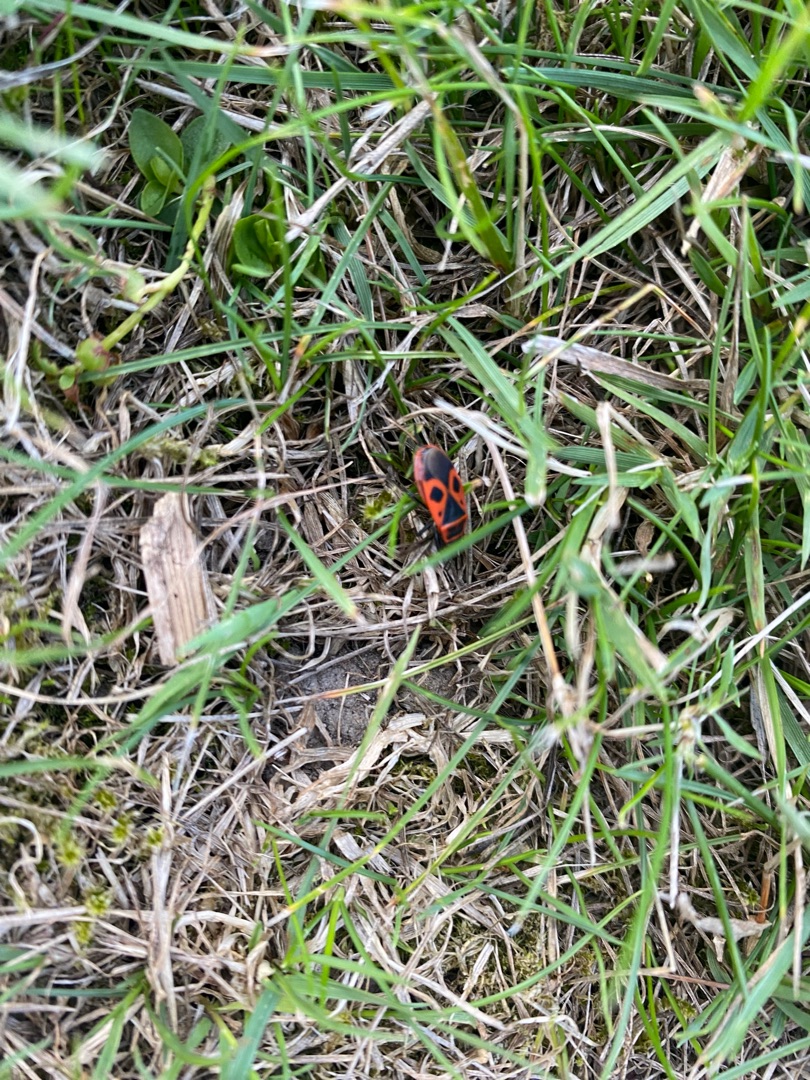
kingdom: Animalia
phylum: Arthropoda
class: Insecta
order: Hemiptera
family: Pyrrhocoridae
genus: Pyrrhocoris
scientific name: Pyrrhocoris apterus
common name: Ildtæge
